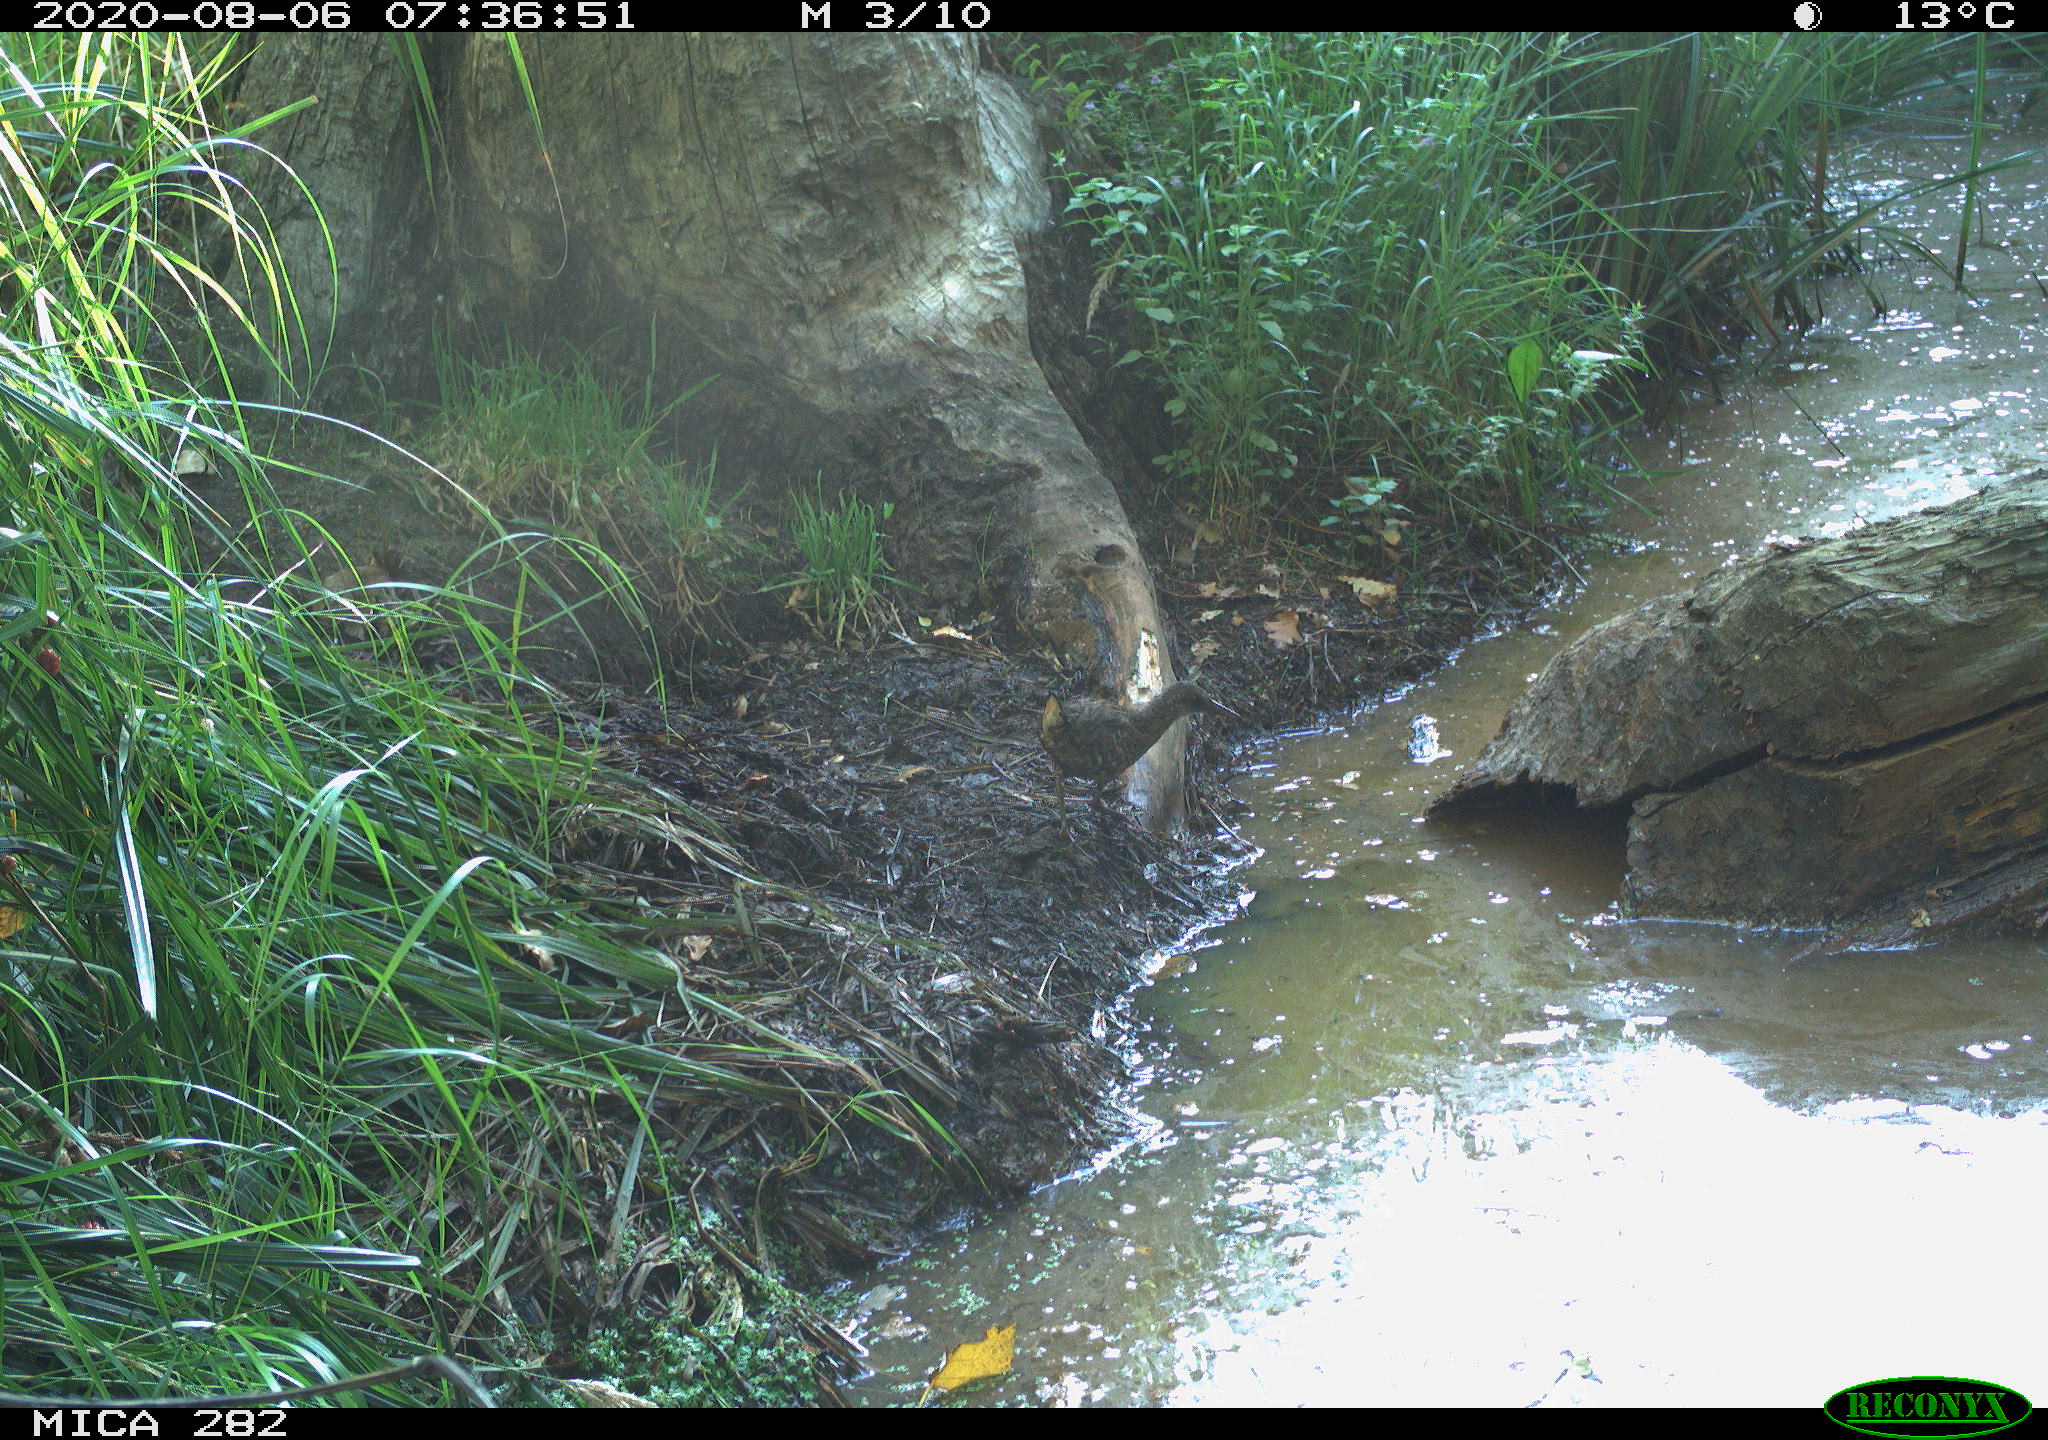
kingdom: Animalia
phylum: Chordata
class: Aves
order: Gruiformes
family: Rallidae
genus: Rallus
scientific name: Rallus aquaticus
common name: Water rail
